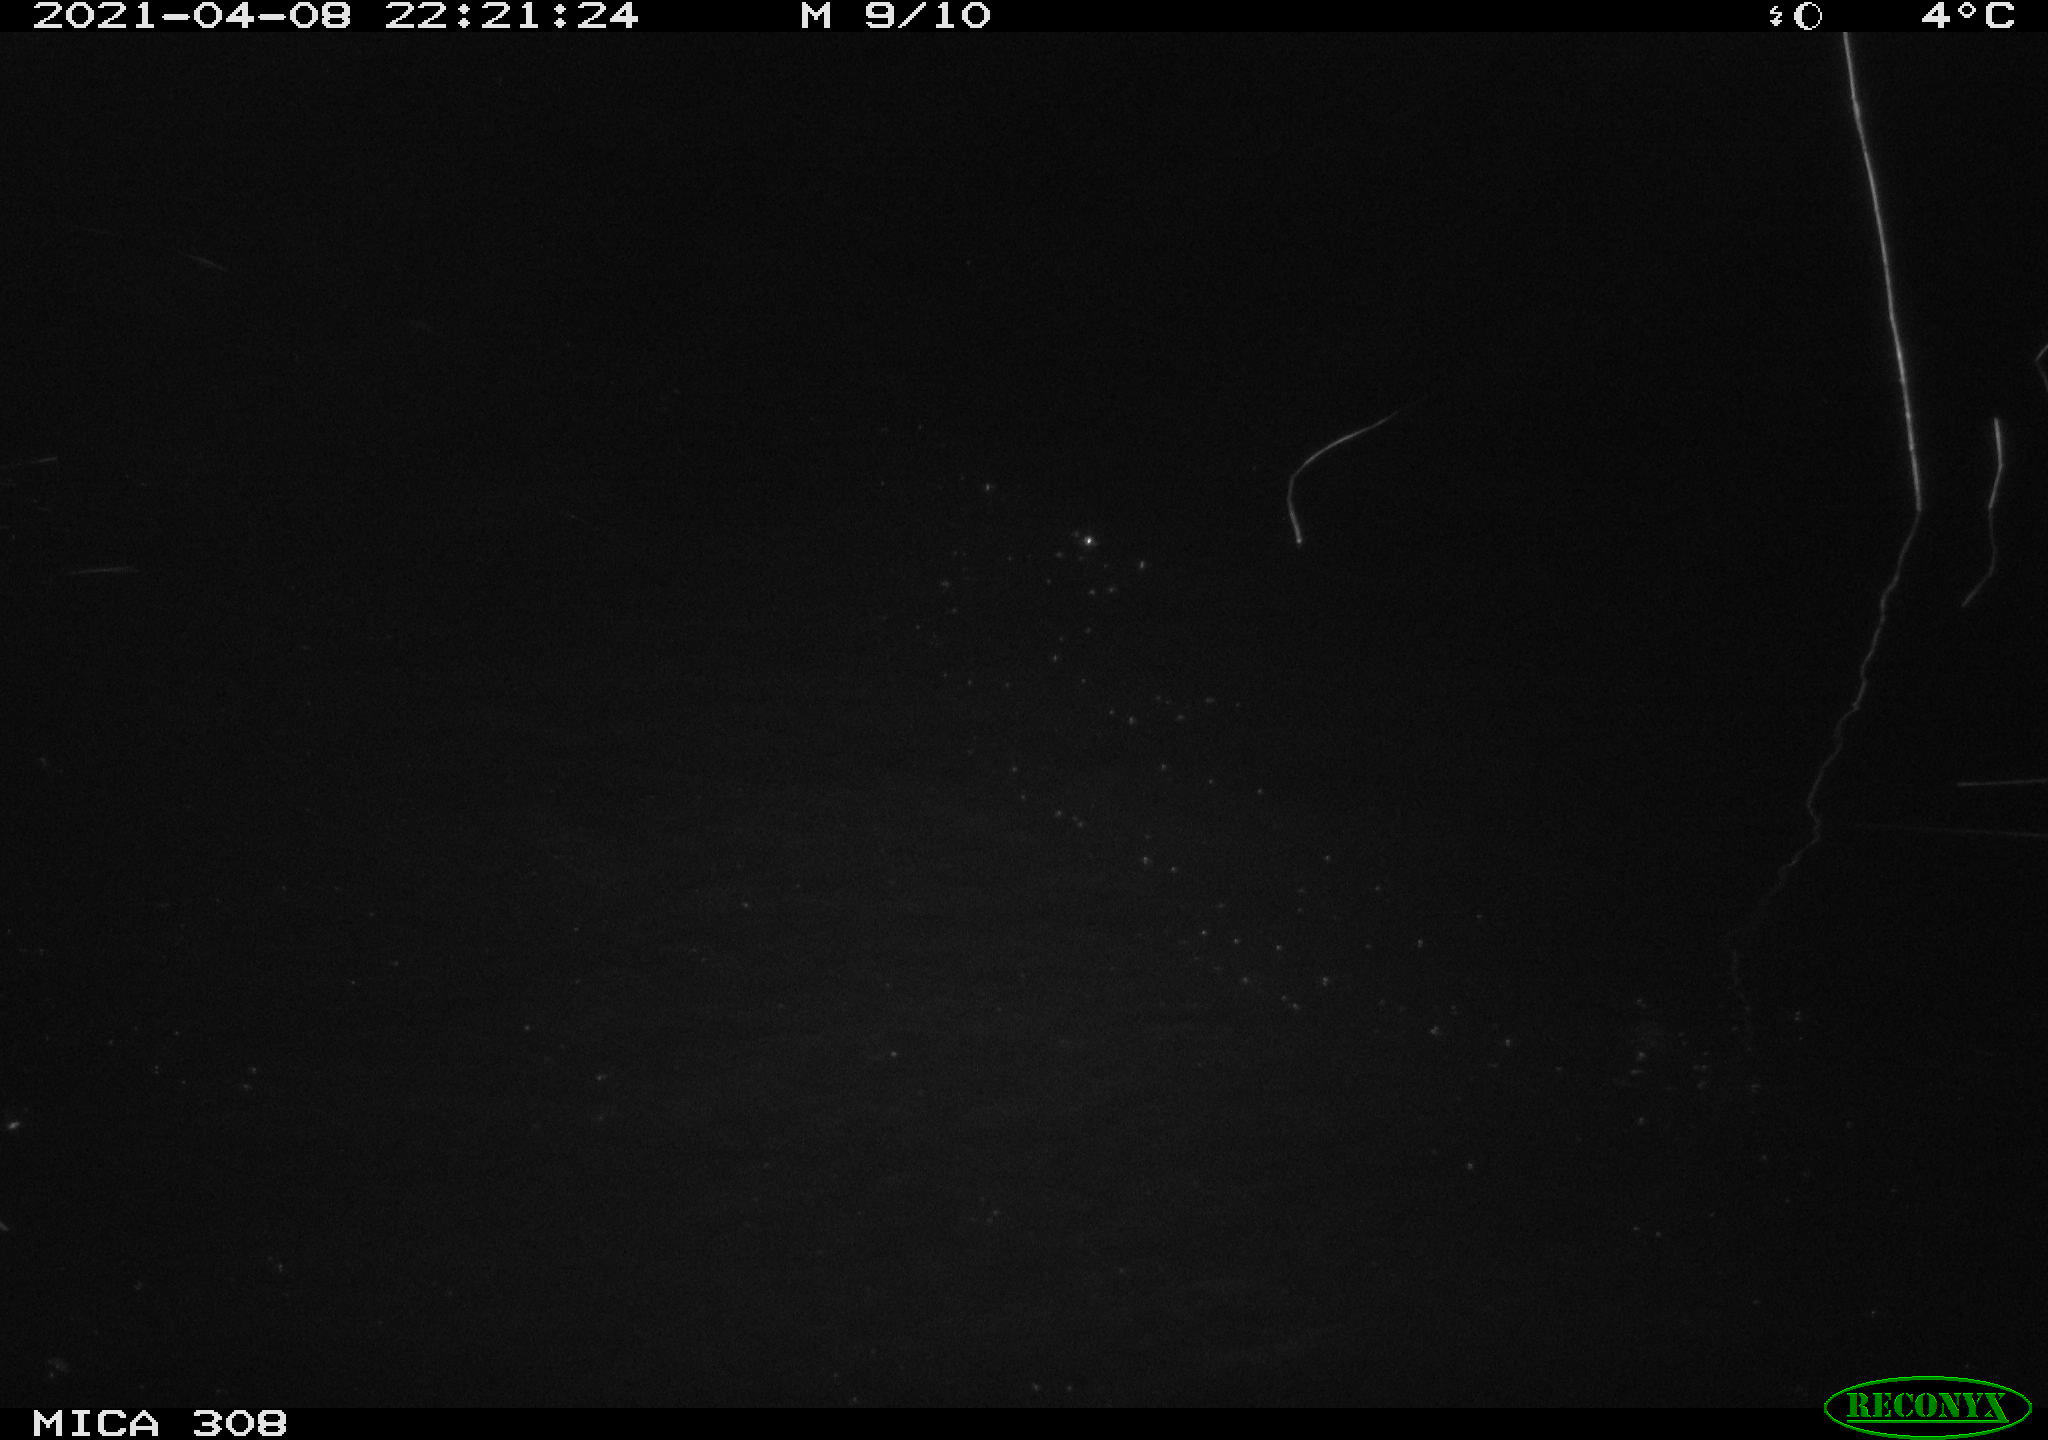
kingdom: Animalia
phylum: Chordata
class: Aves
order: Anseriformes
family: Anatidae
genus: Anas
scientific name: Anas platyrhynchos
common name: Mallard
